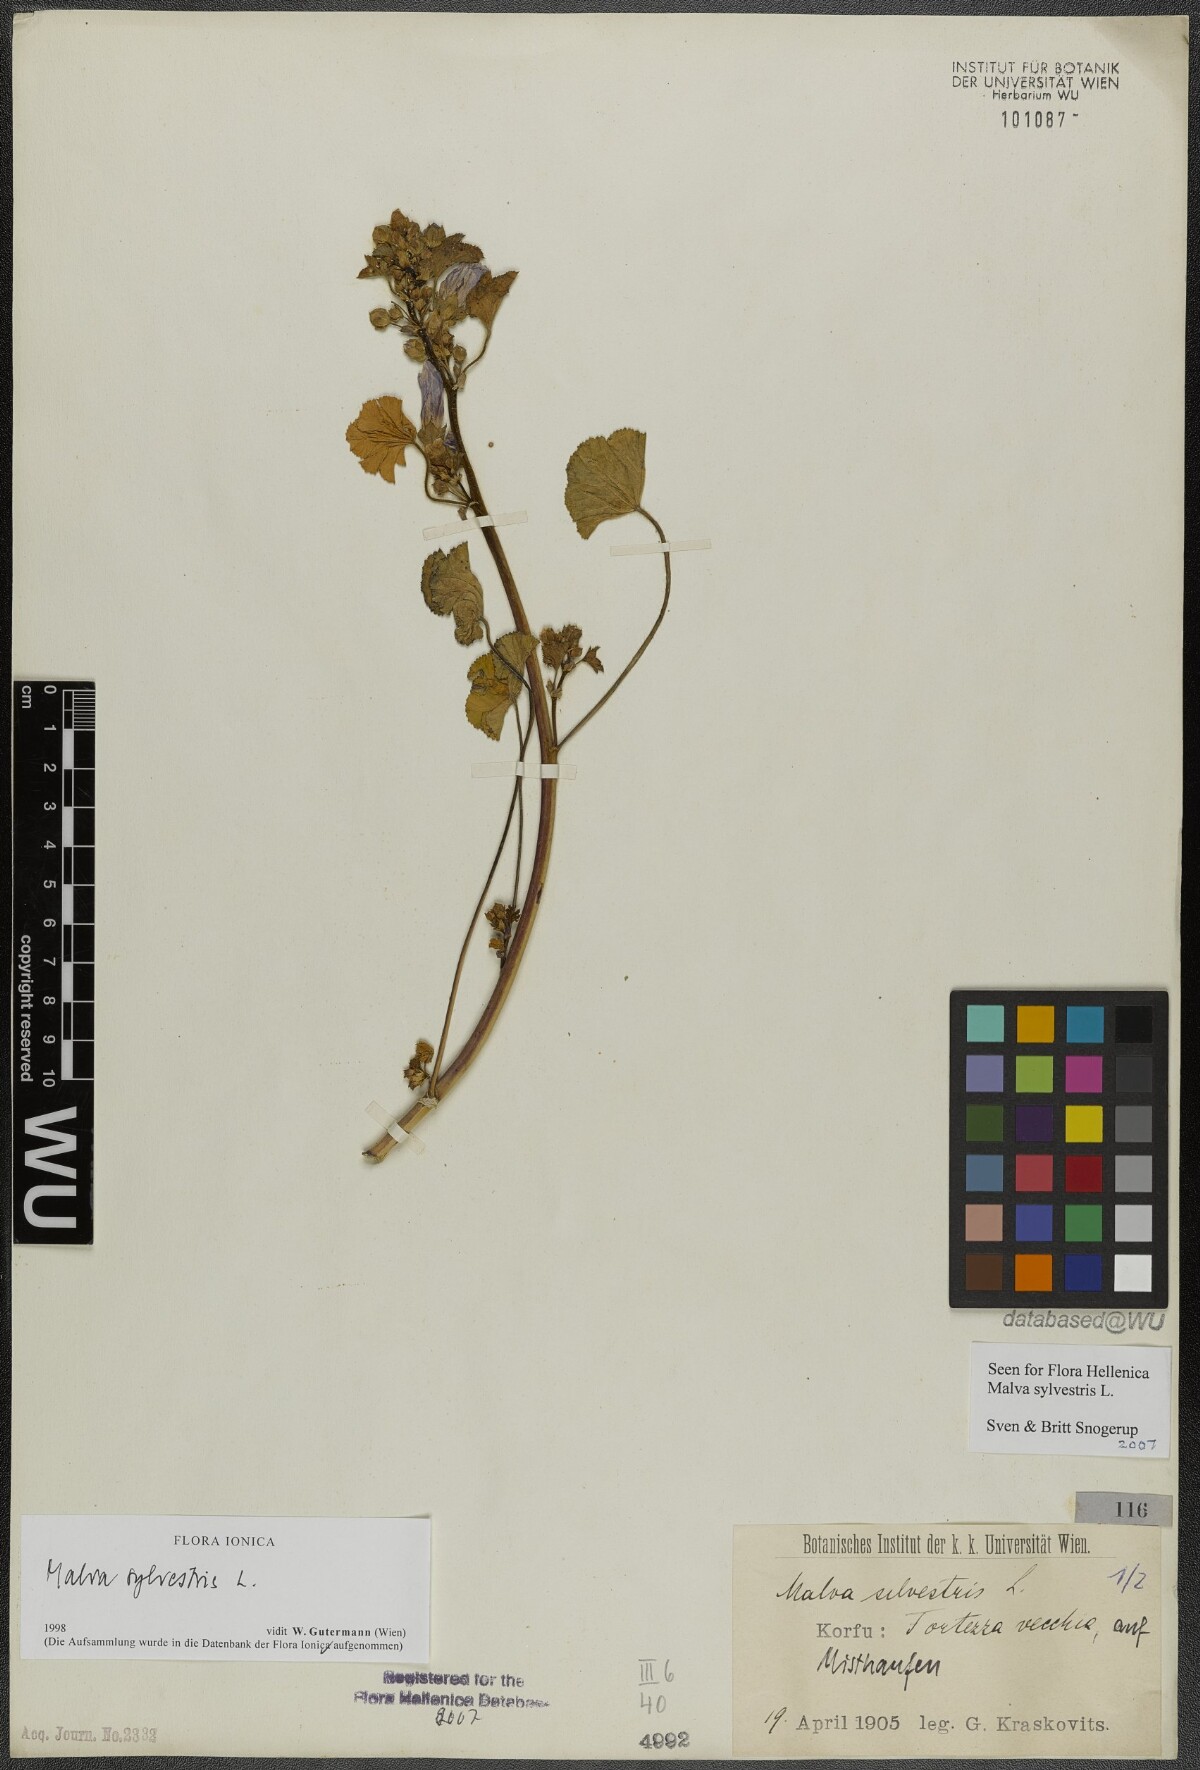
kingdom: Plantae
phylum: Tracheophyta
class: Magnoliopsida
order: Malvales
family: Malvaceae
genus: Malva
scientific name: Malva sylvestris
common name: Common mallow
